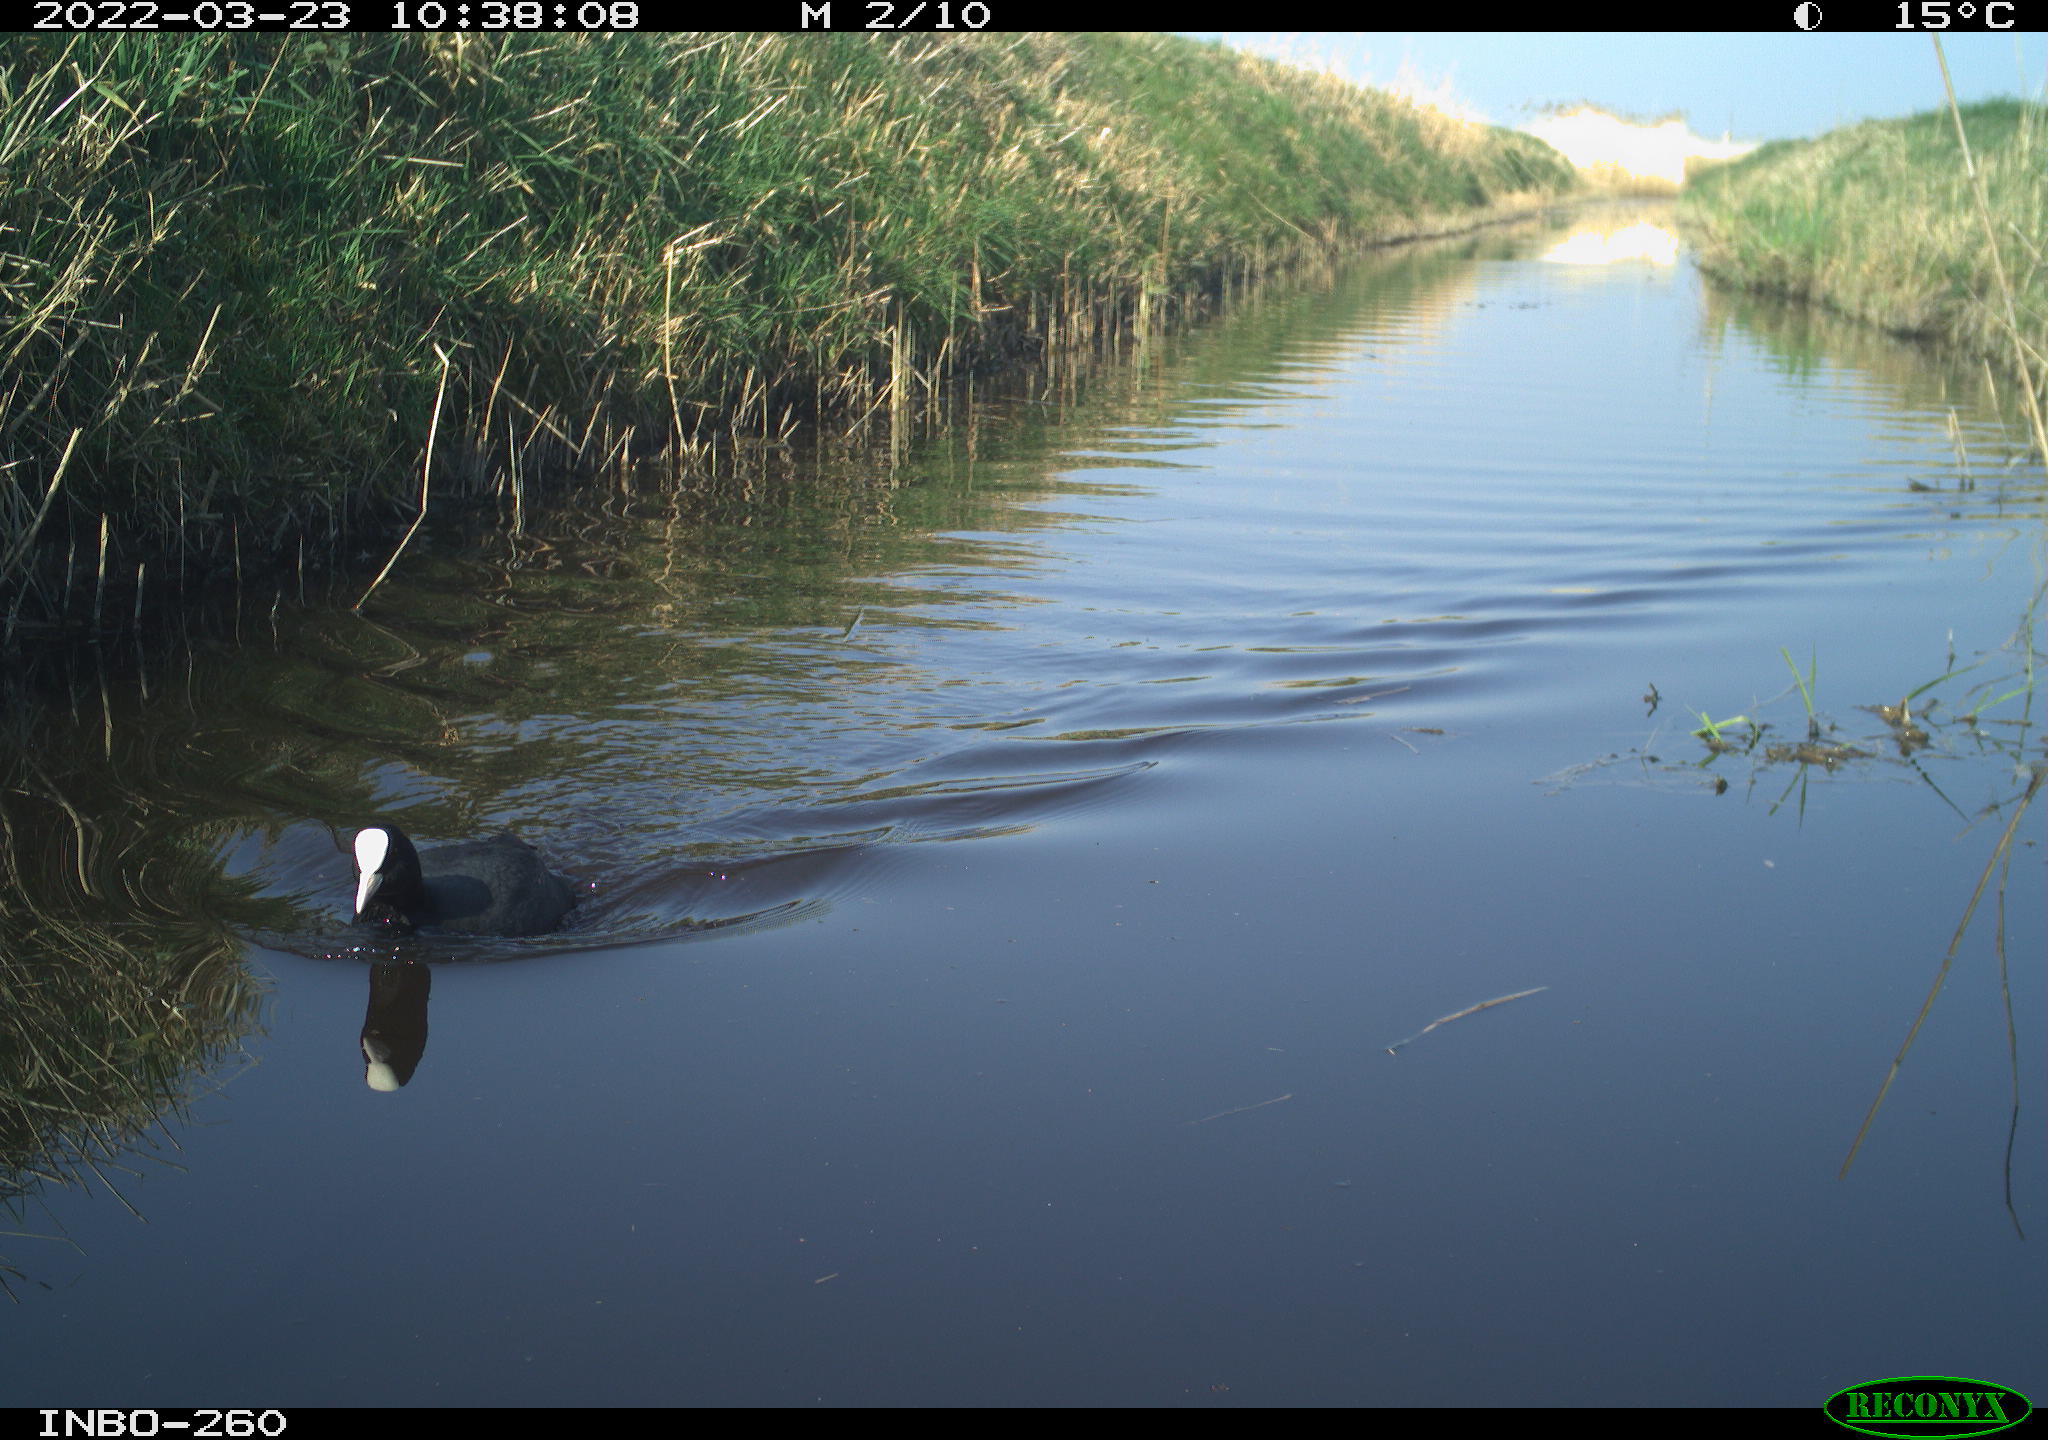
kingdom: Animalia
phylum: Chordata
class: Aves
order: Gruiformes
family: Rallidae
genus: Fulica
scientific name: Fulica atra
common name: Eurasian coot
